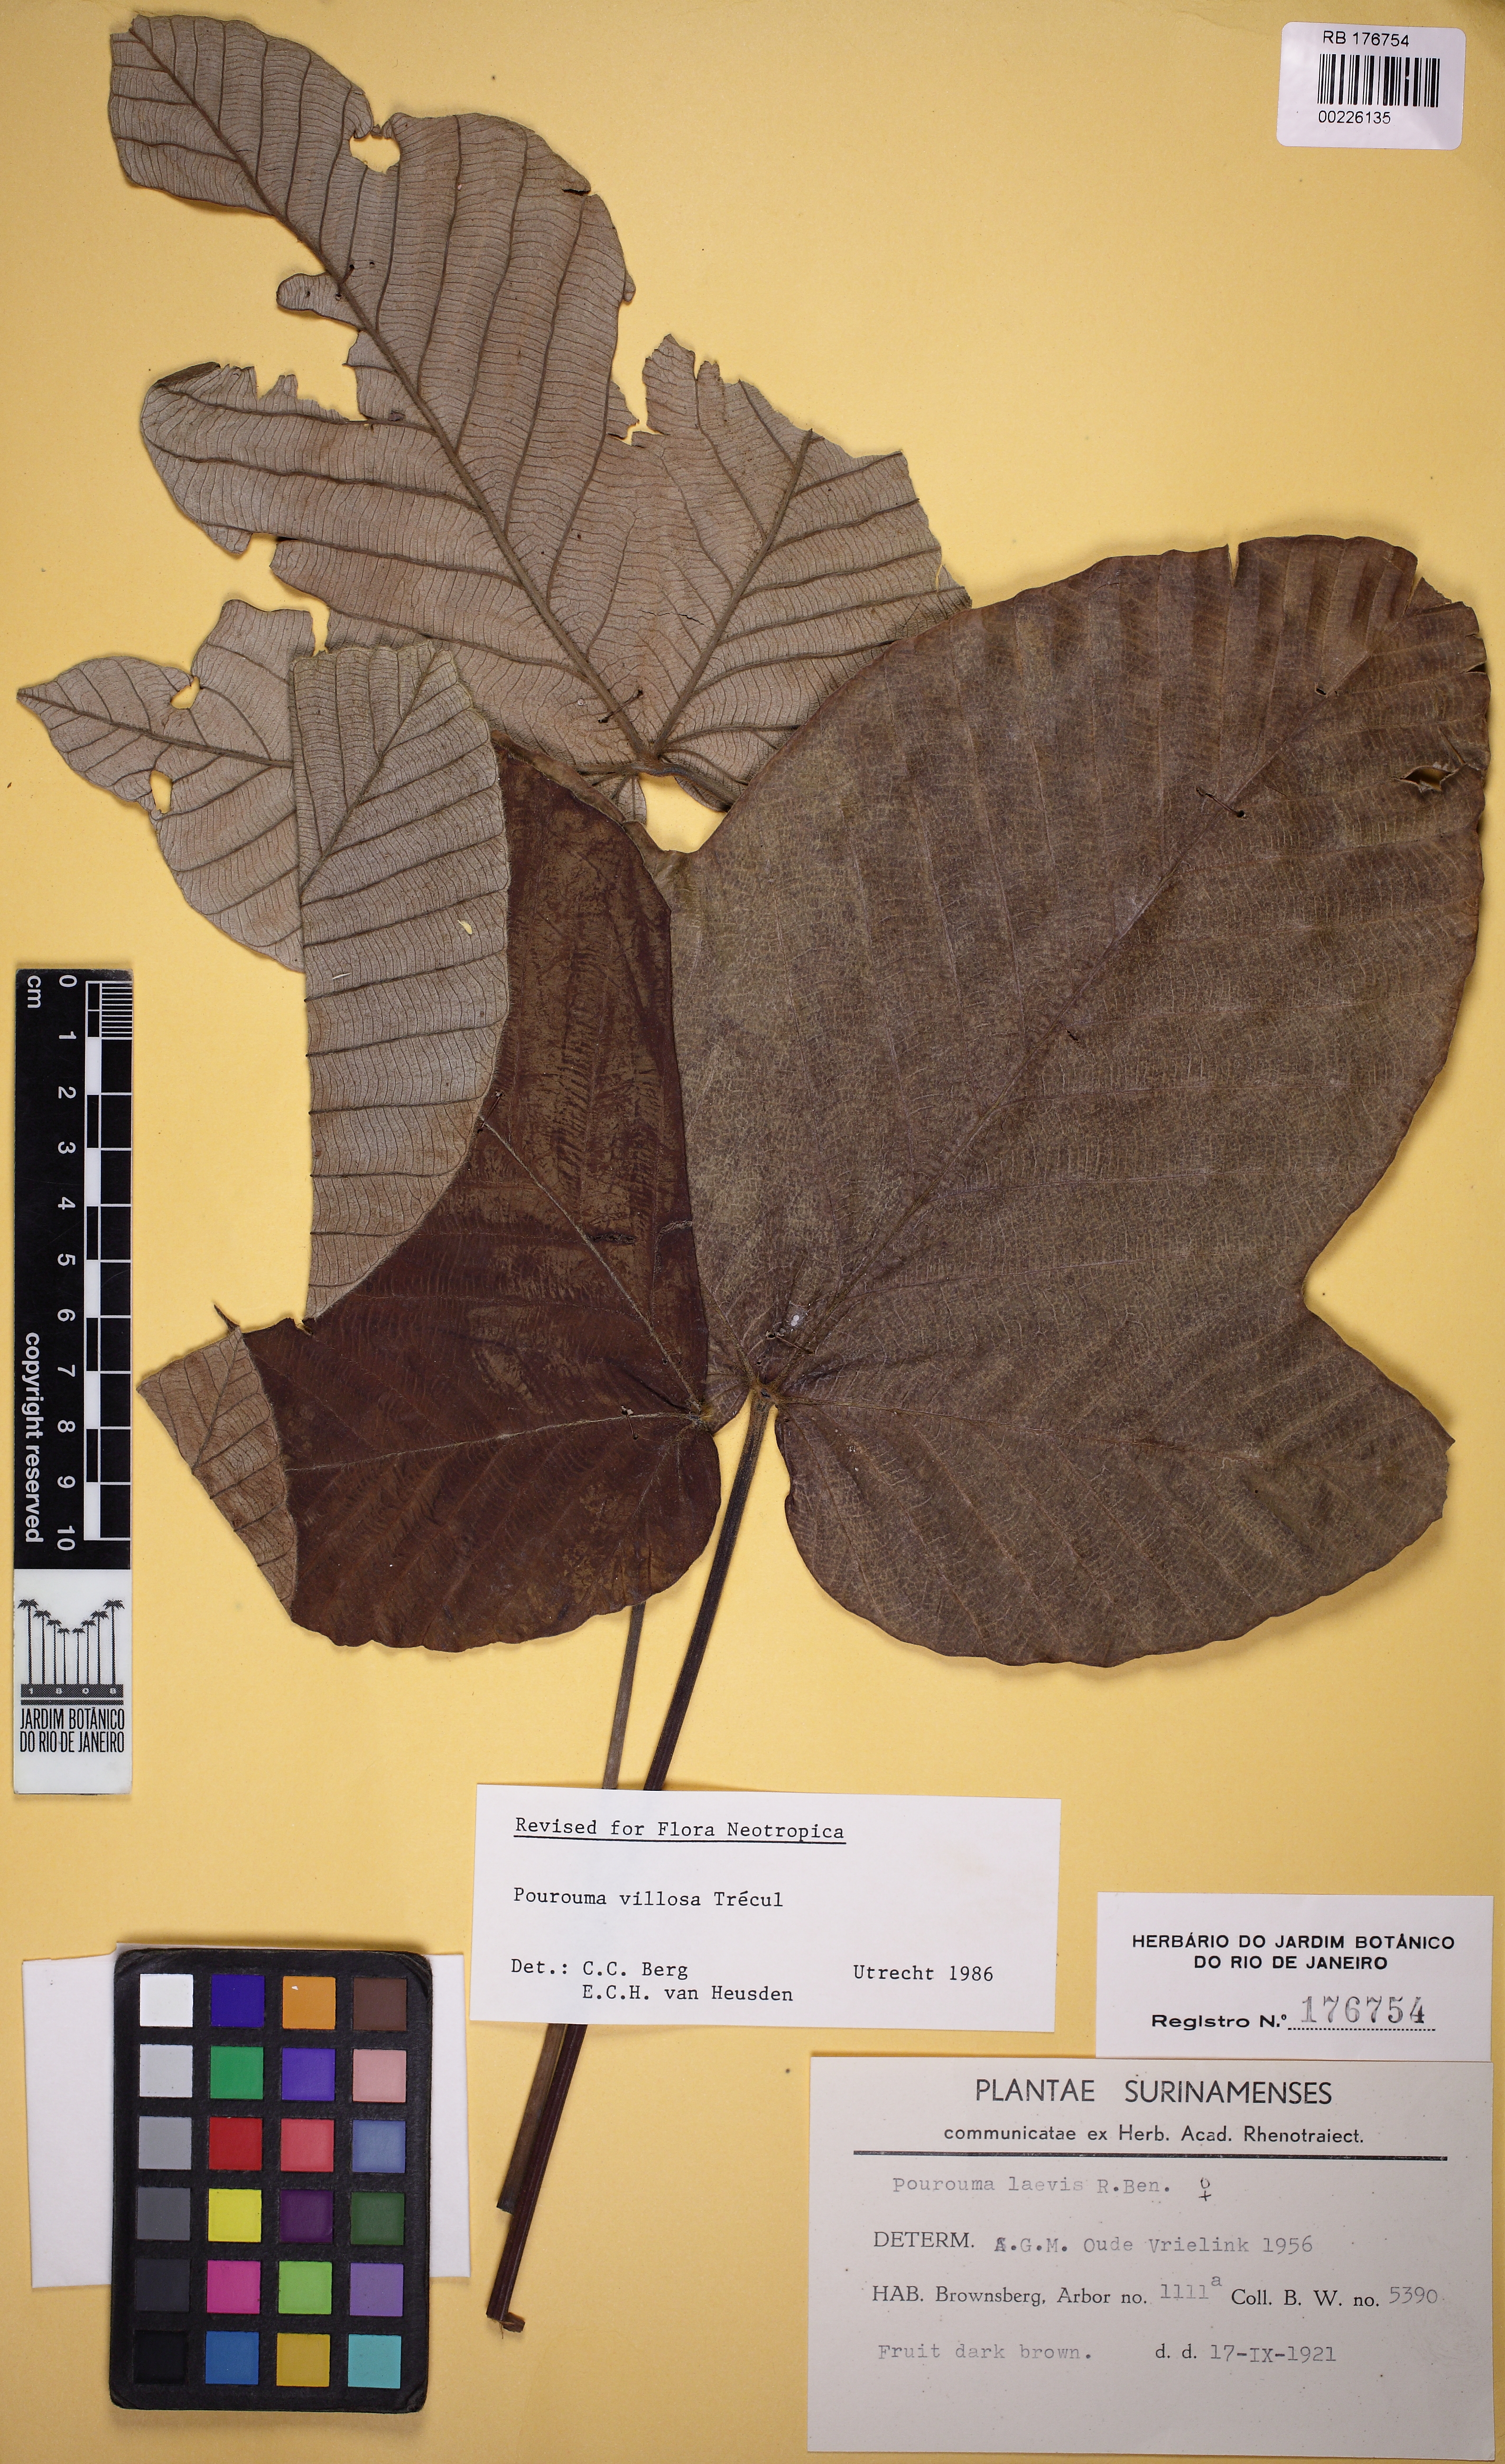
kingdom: Plantae
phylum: Tracheophyta
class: Magnoliopsida
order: Rosales
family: Urticaceae
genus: Pourouma
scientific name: Pourouma villosa
